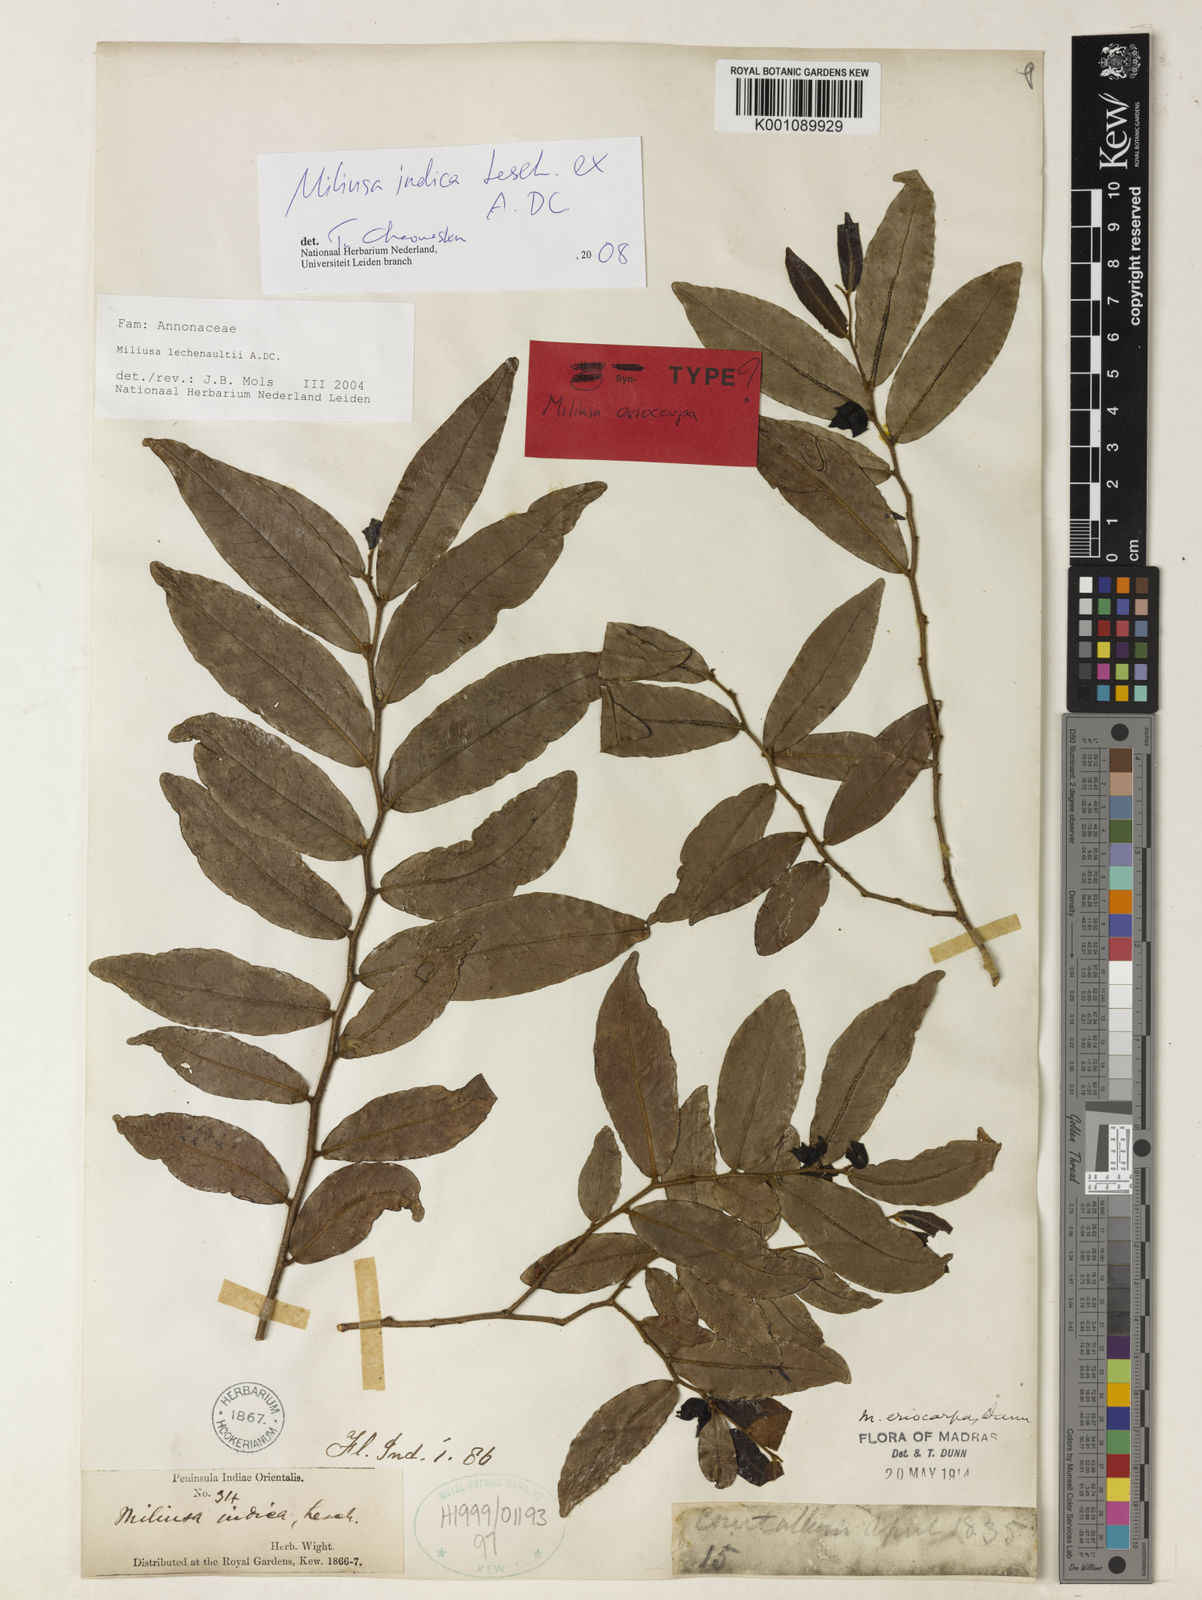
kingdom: Plantae
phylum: Tracheophyta
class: Magnoliopsida
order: Magnoliales
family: Annonaceae
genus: Miliusa
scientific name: Miliusa indica
